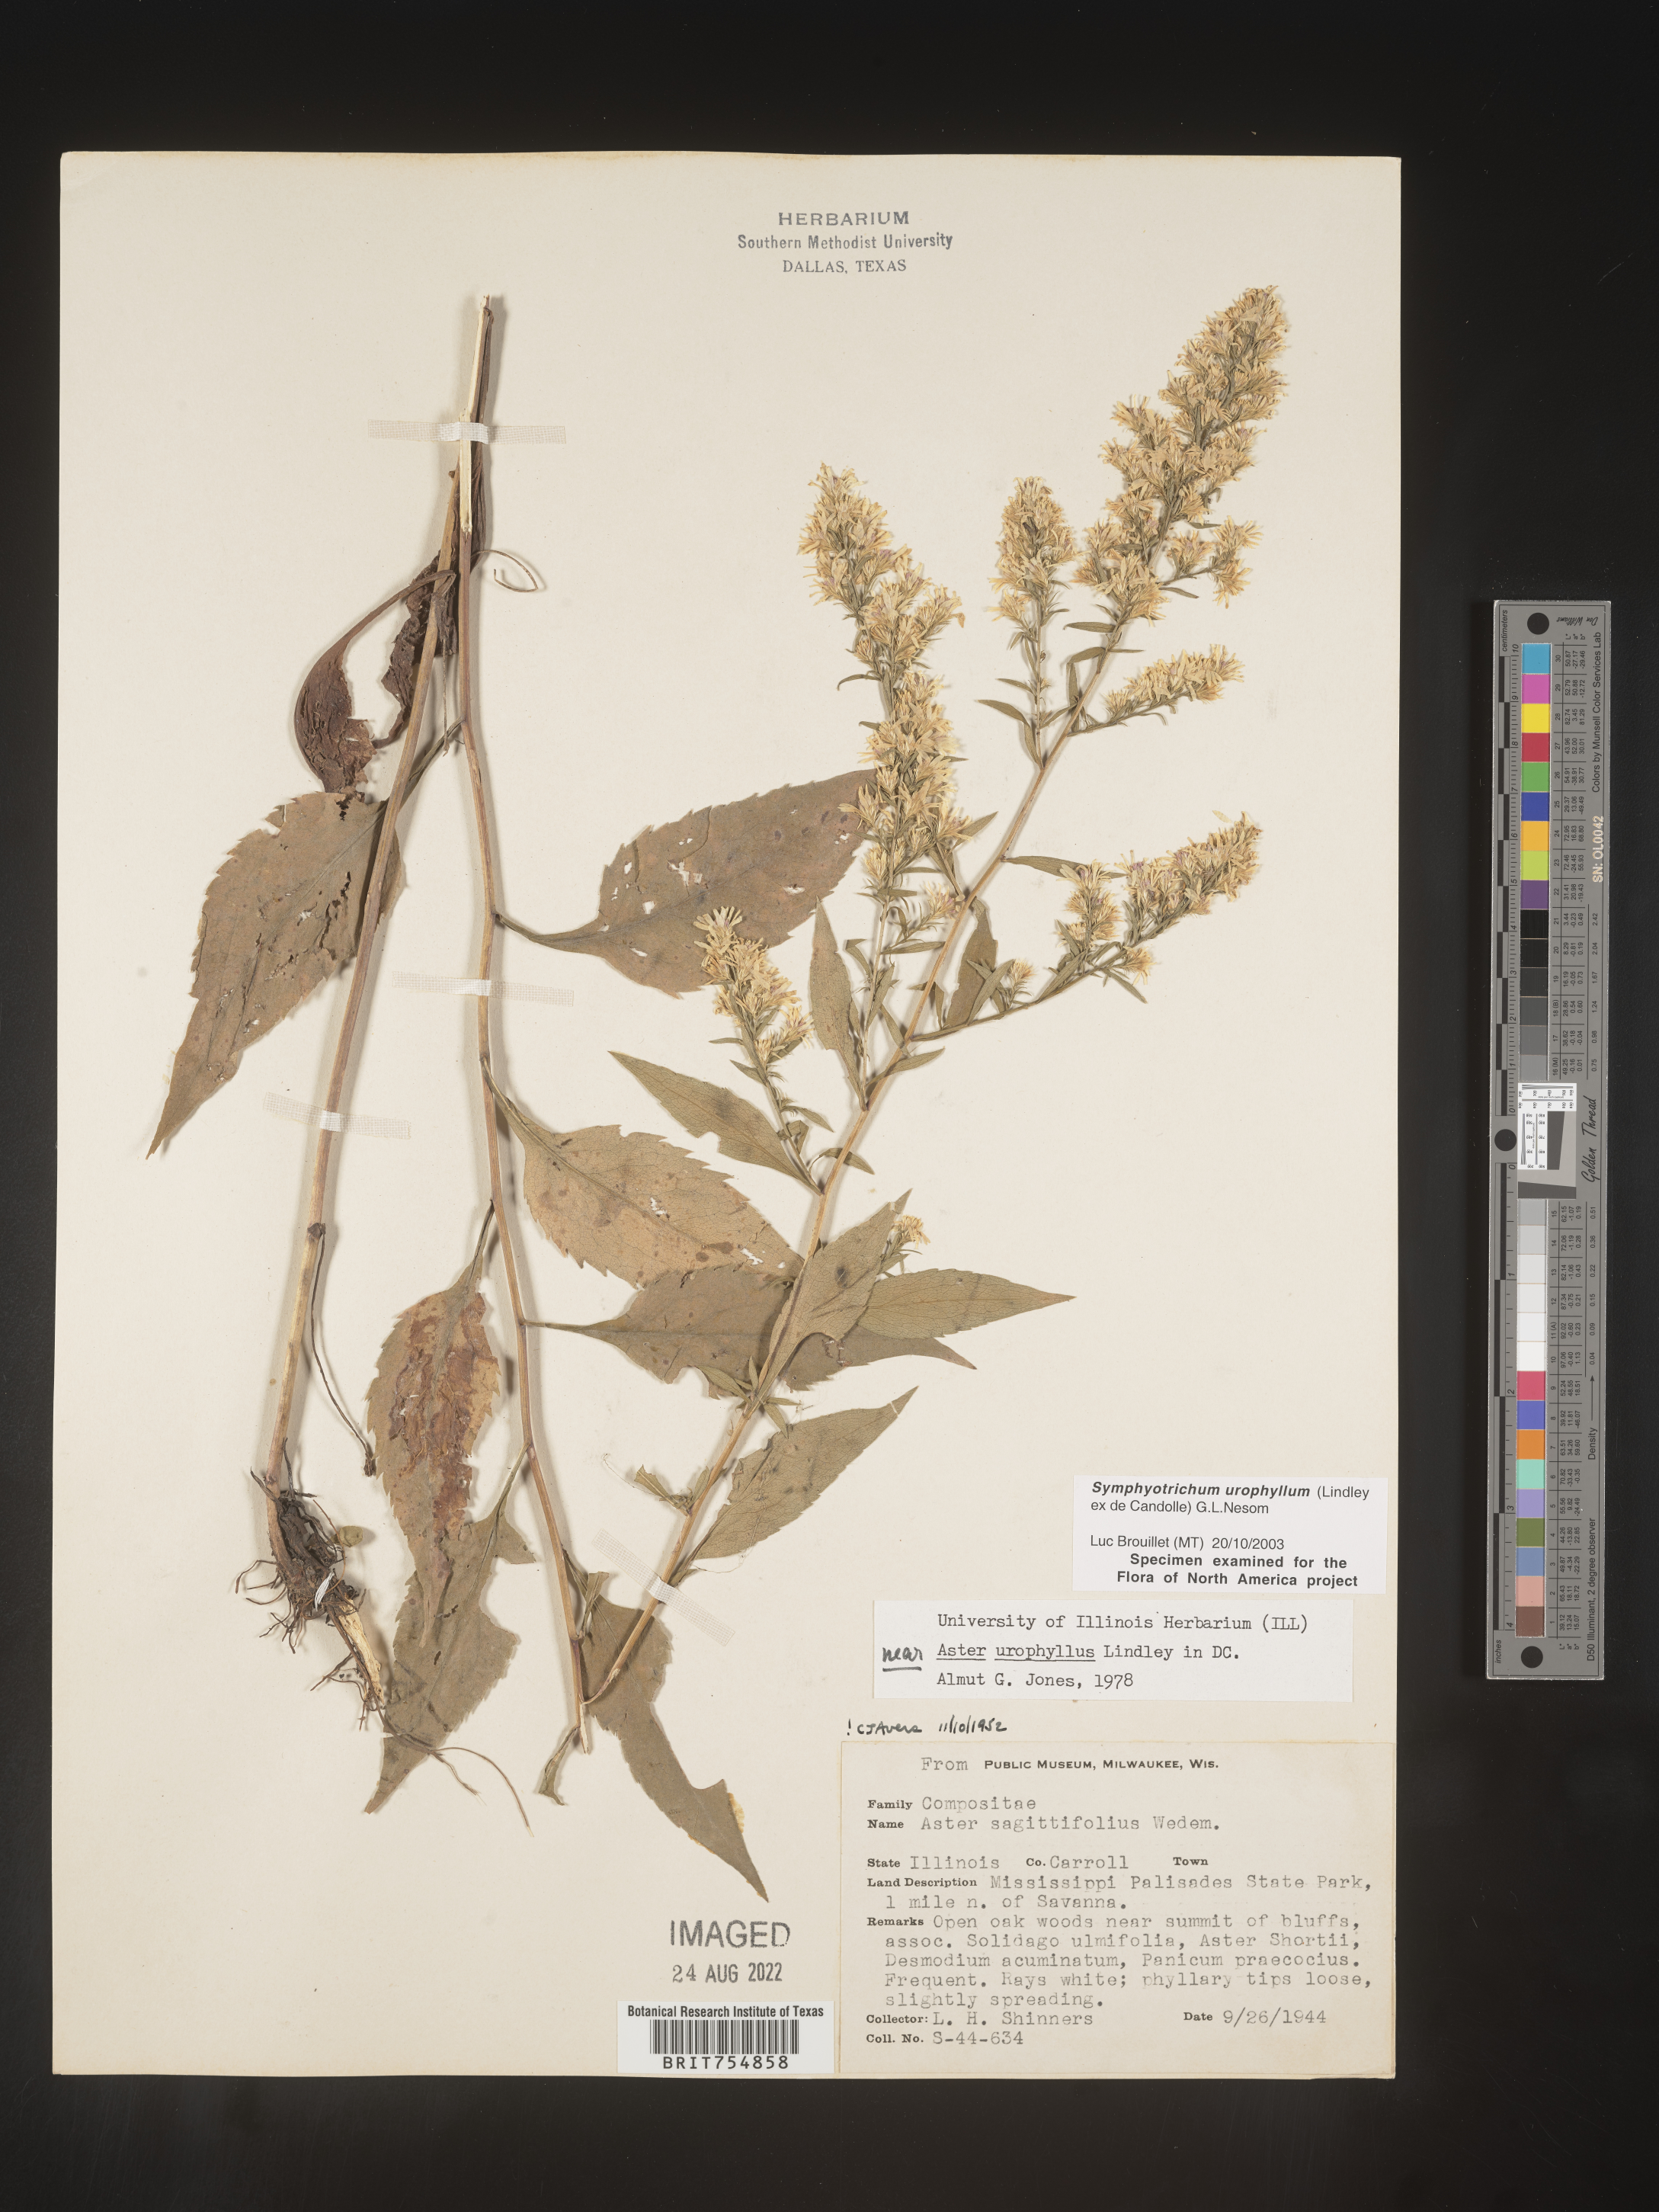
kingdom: Plantae
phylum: Tracheophyta
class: Magnoliopsida
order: Asterales
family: Asteraceae
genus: Symphyotrichum
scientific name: Symphyotrichum urophyllum
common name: Arrow-leaved aster
